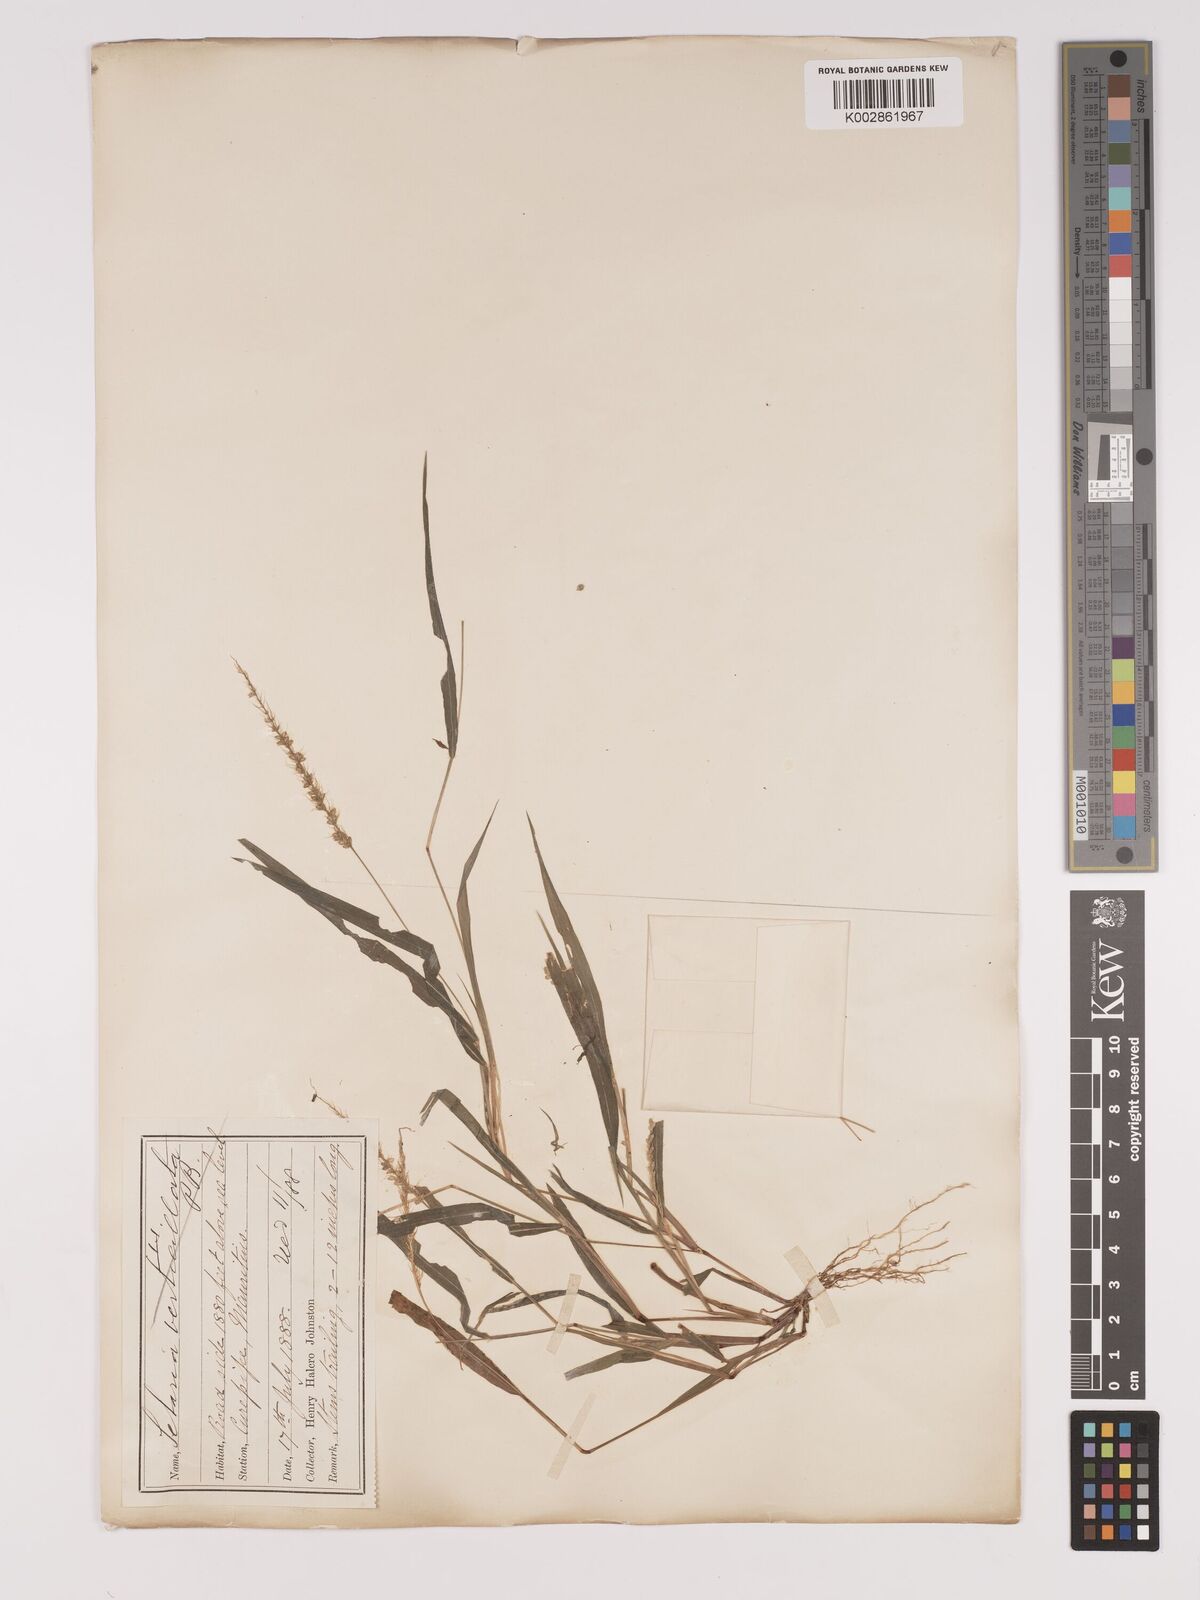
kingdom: Plantae
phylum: Tracheophyta
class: Liliopsida
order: Poales
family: Poaceae
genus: Setaria
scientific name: Setaria intermedia
